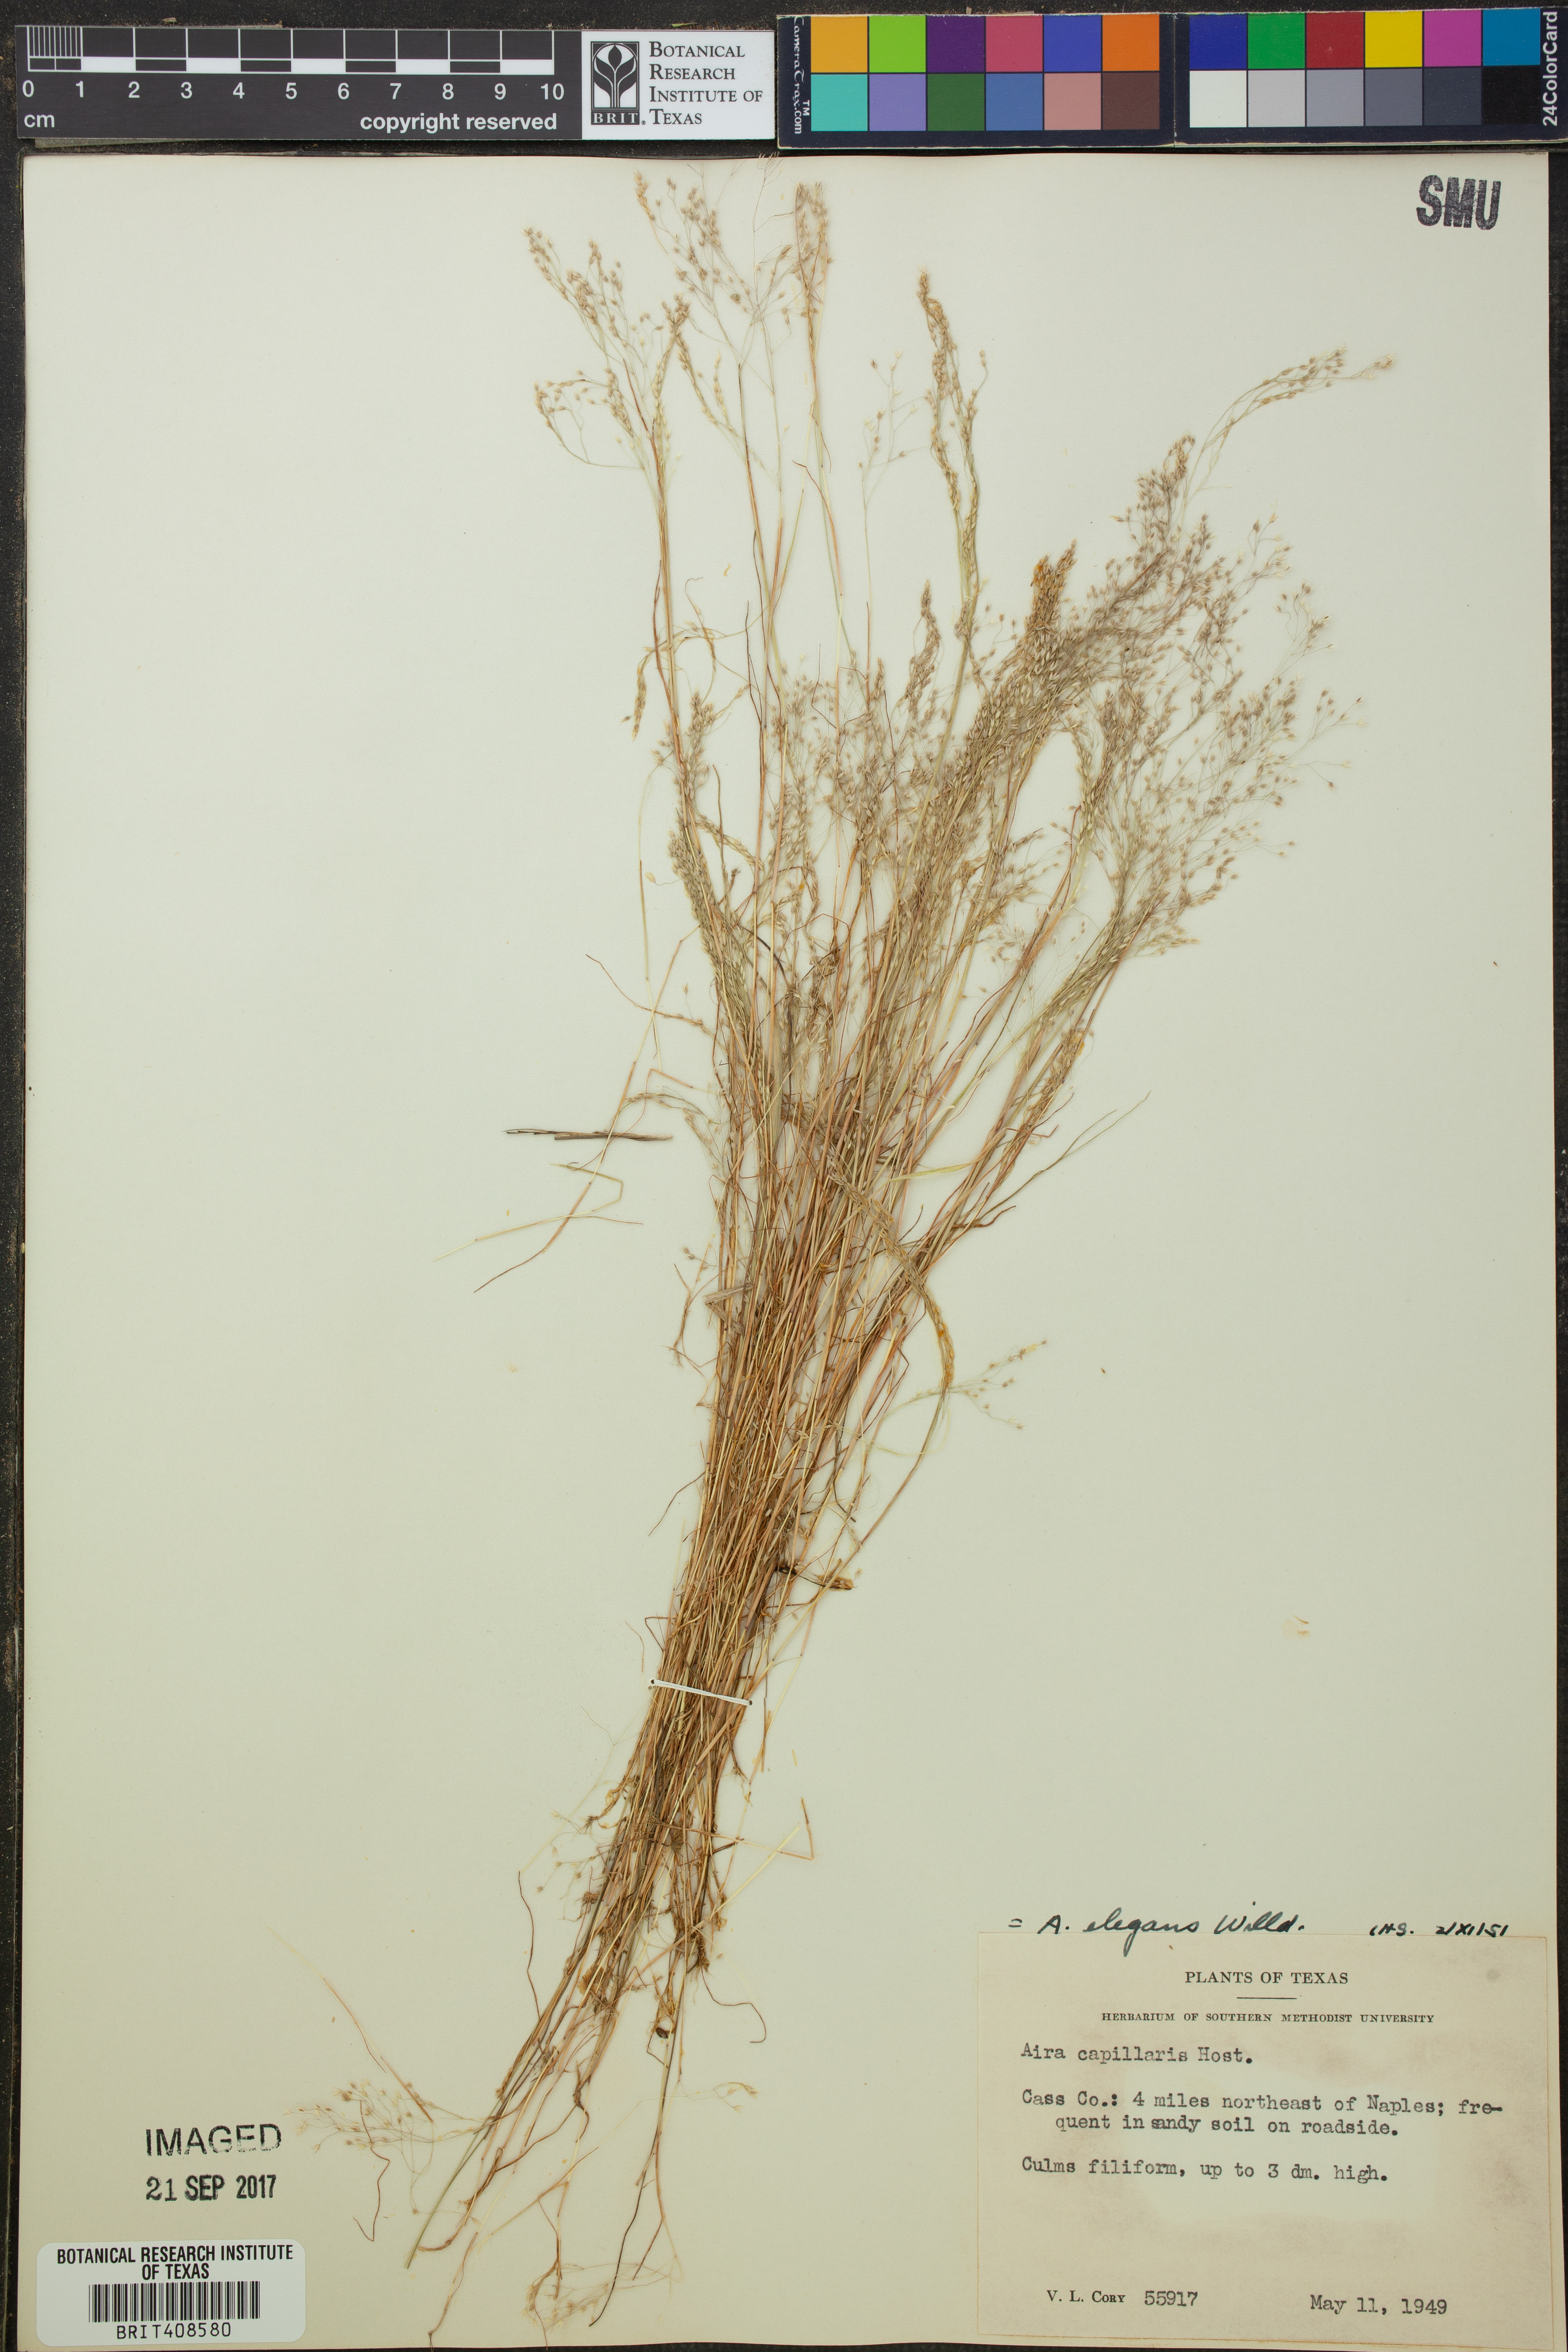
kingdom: Plantae
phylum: Tracheophyta
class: Liliopsida
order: Poales
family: Poaceae
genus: Aira
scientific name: Aira elegans
